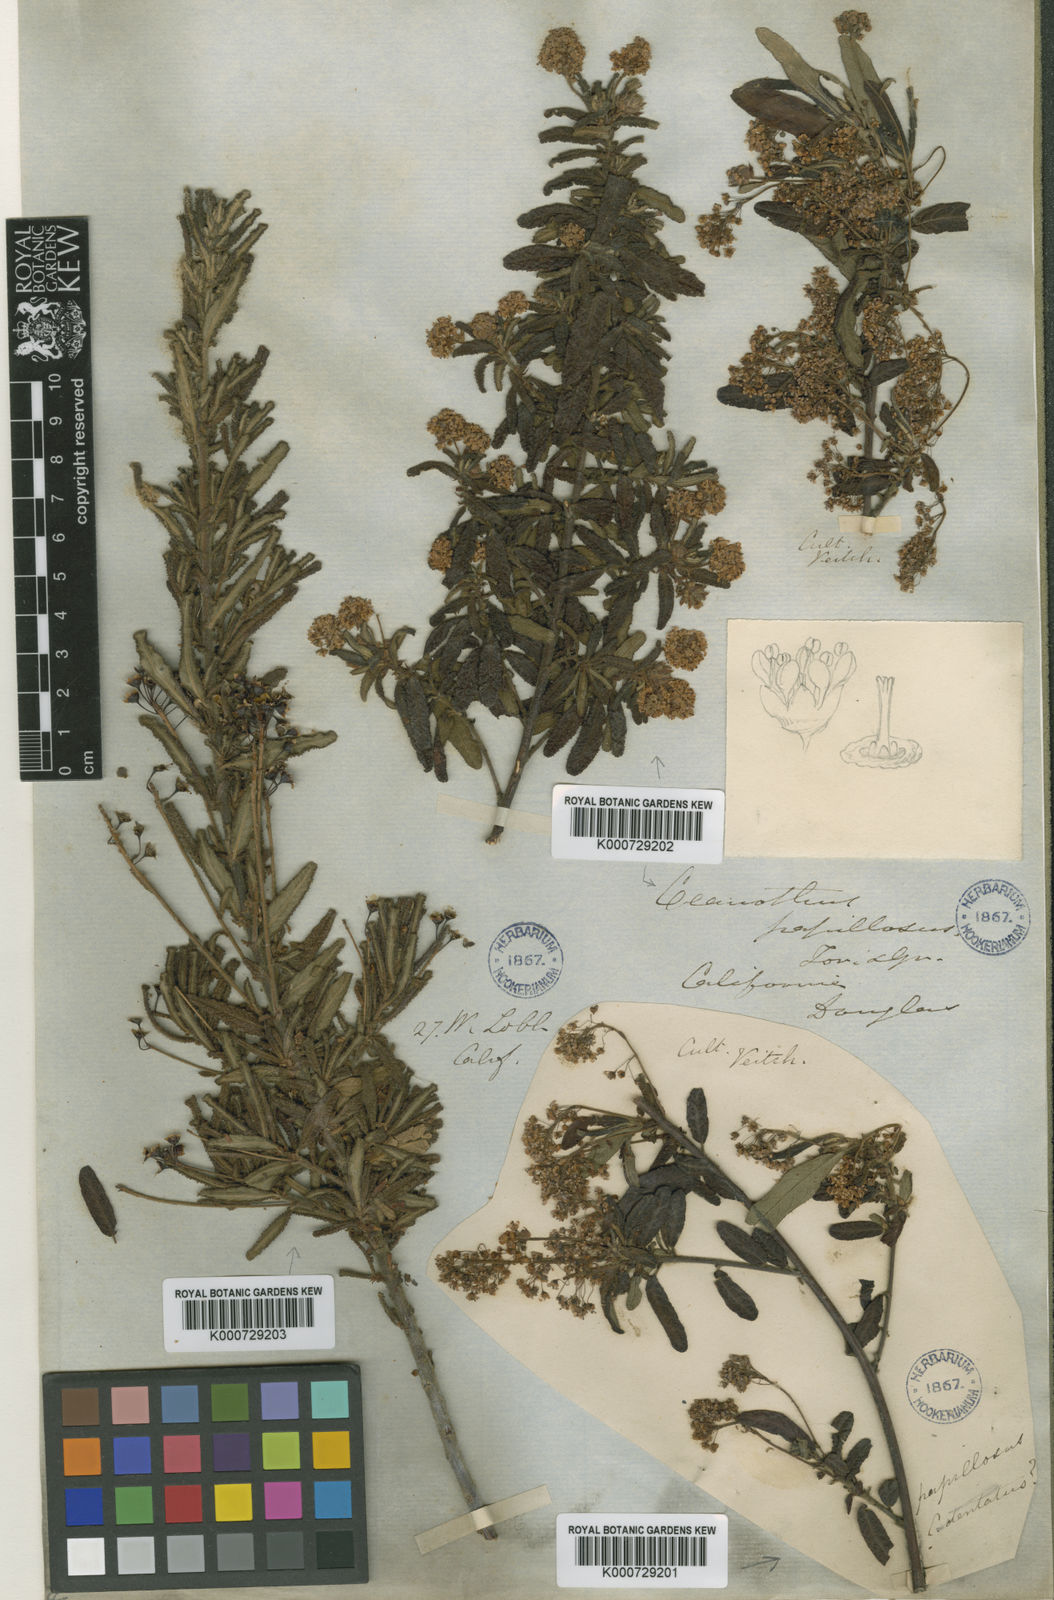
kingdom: Plantae
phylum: Tracheophyta
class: Magnoliopsida
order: Rosales
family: Rhamnaceae
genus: Ceanothus
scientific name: Ceanothus papillosus
